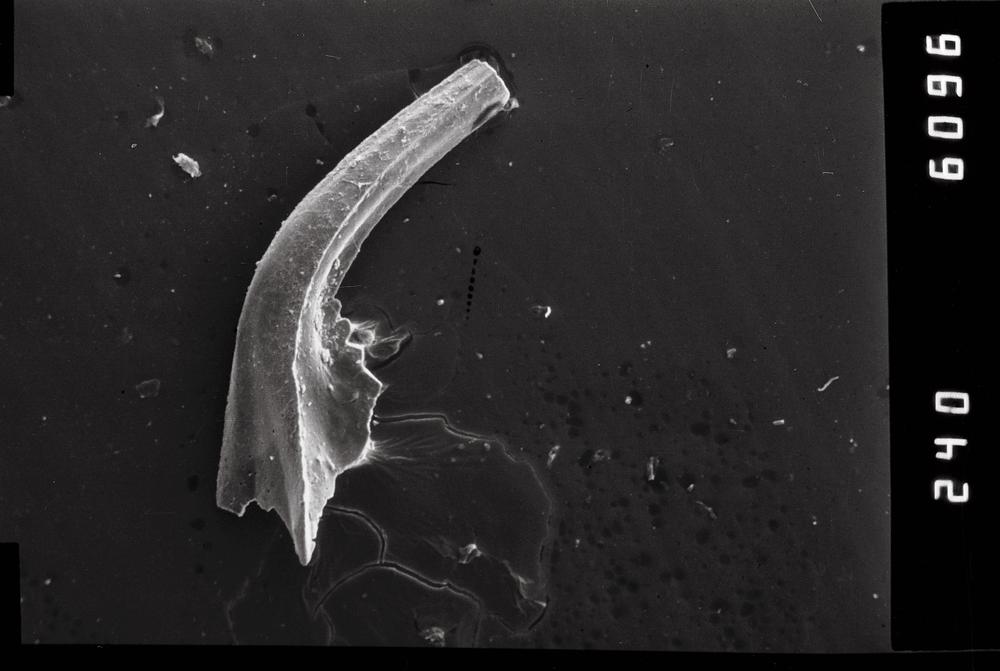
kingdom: Animalia
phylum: Chordata
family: Balognathidae
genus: Baltoniodus
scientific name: Baltoniodus
